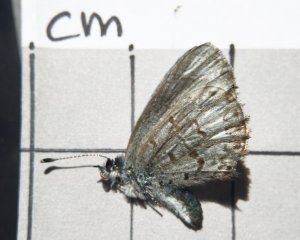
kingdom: Animalia
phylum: Arthropoda
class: Insecta
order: Lepidoptera
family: Lycaenidae
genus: Celastrina
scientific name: Celastrina
